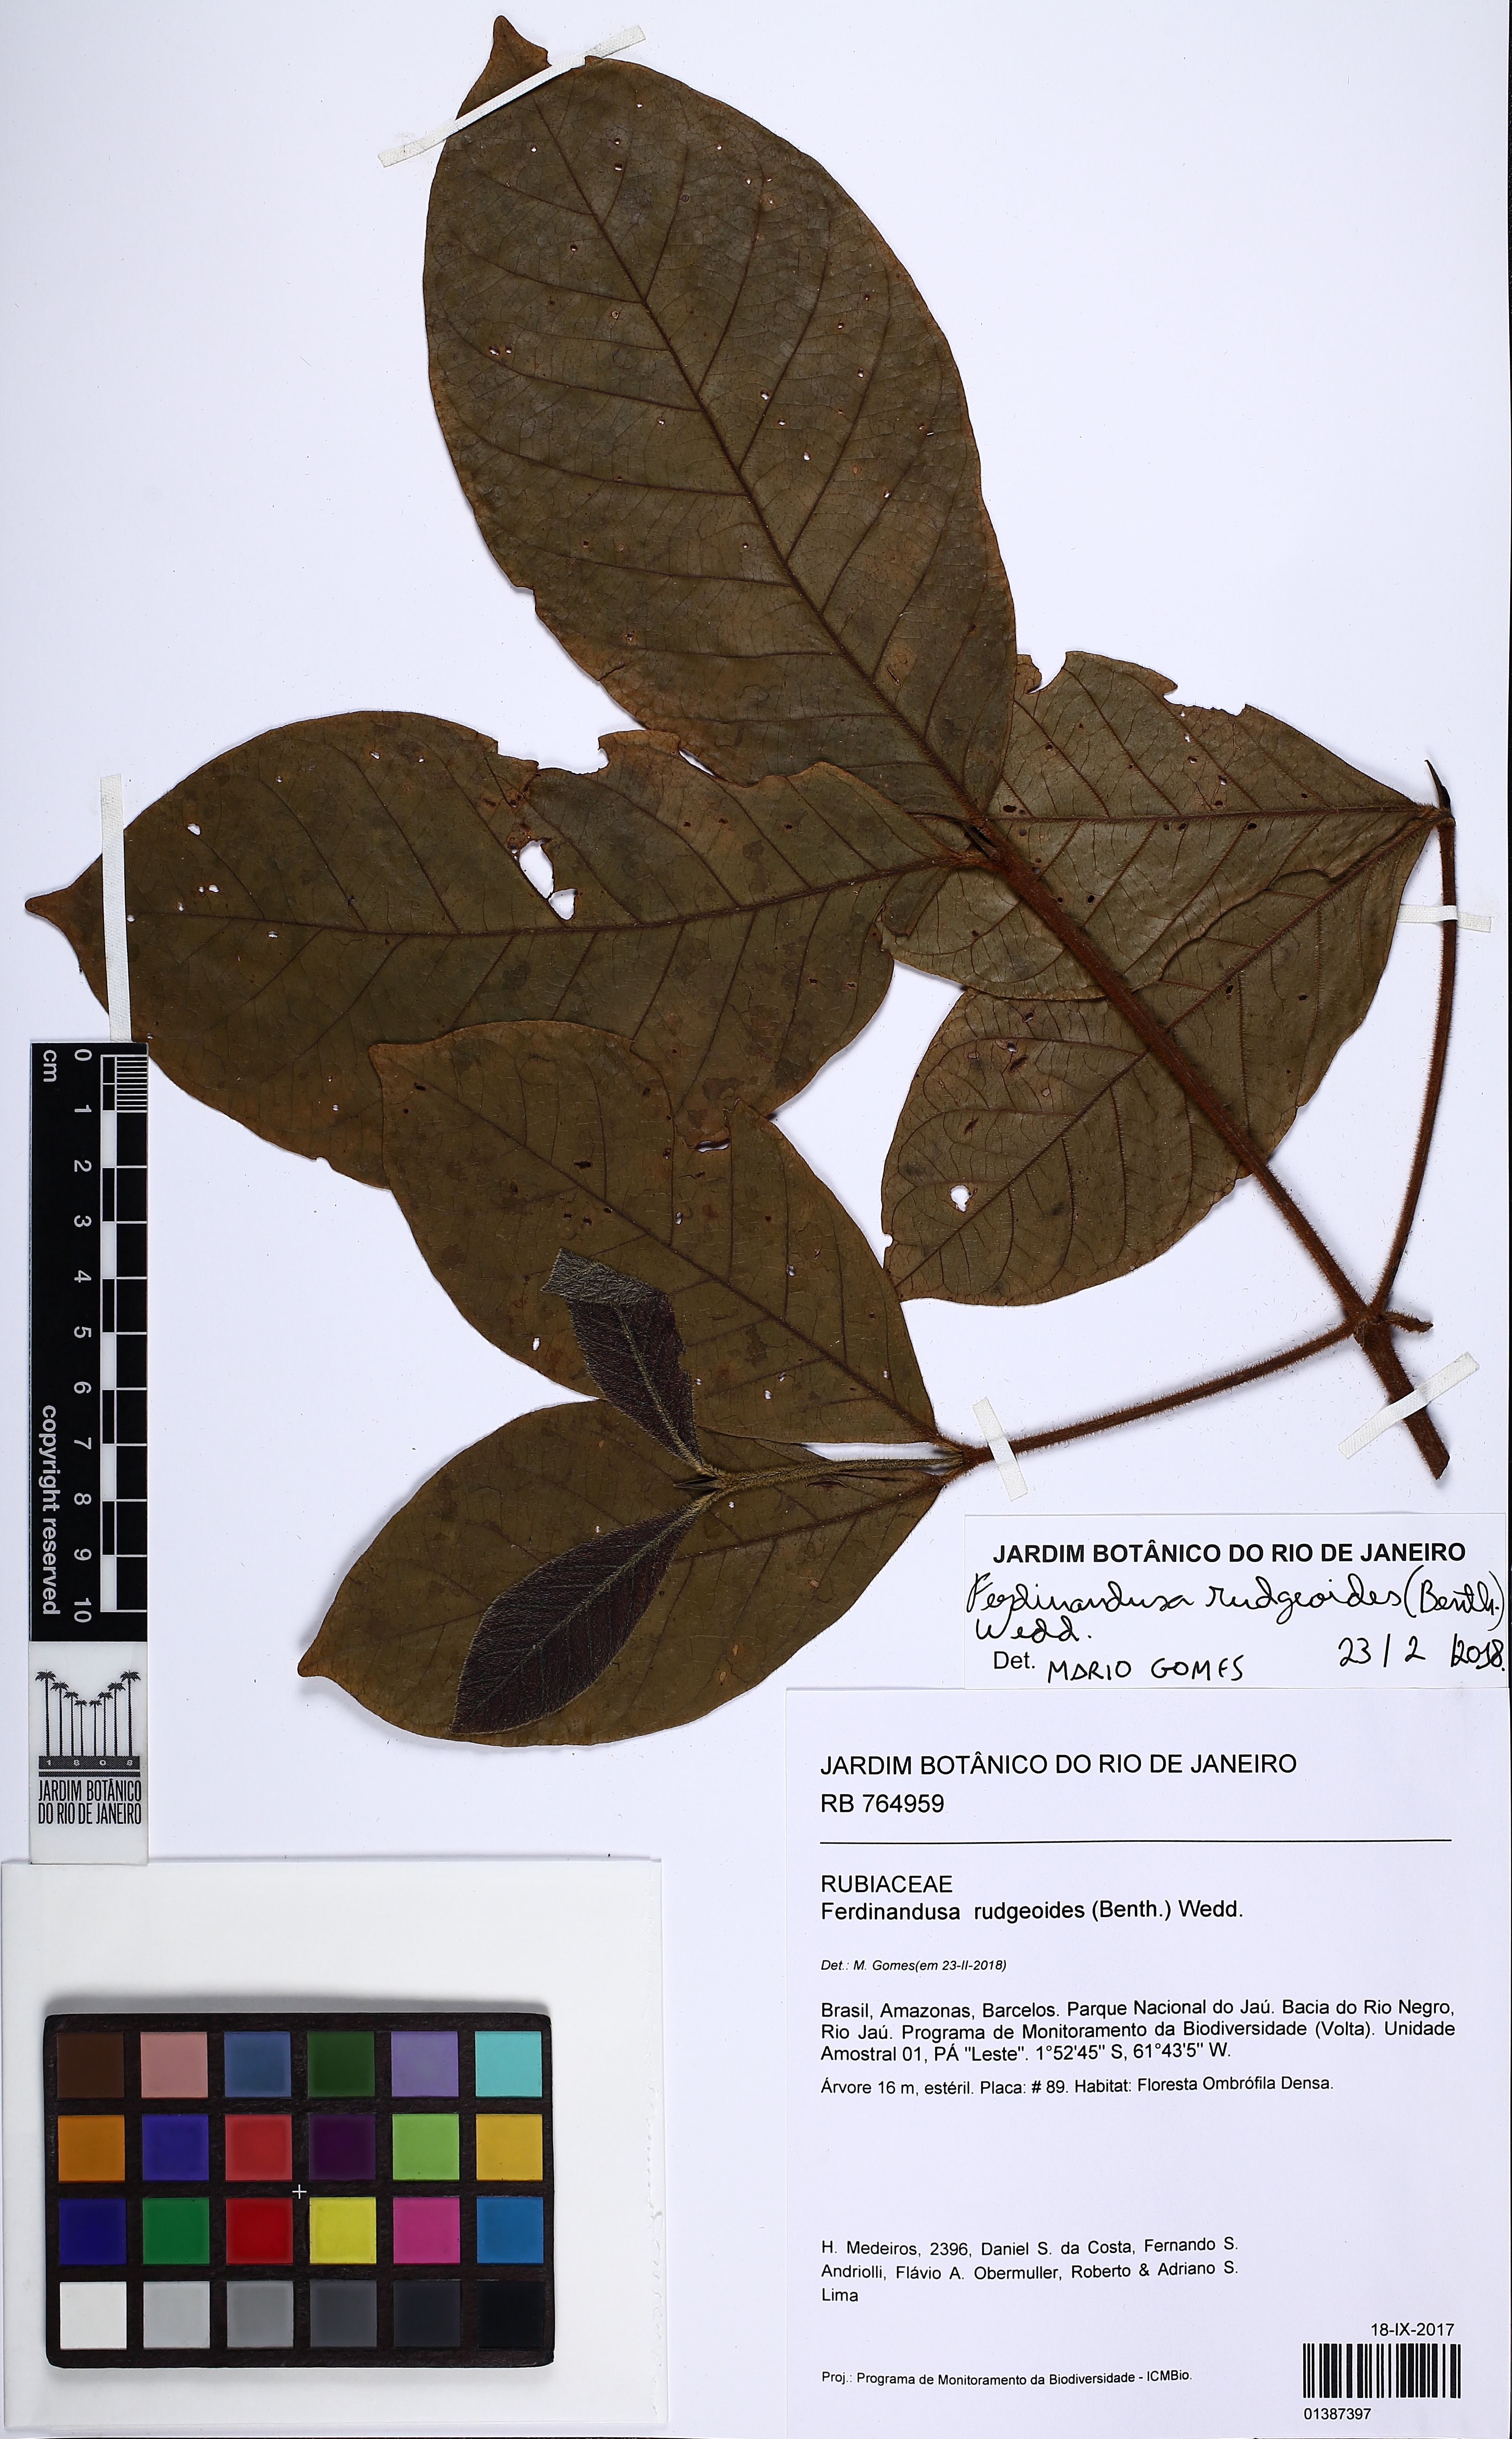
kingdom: Plantae
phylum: Tracheophyta
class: Magnoliopsida
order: Gentianales
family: Rubiaceae
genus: Ferdinandusa
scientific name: Ferdinandusa rudgeoides
